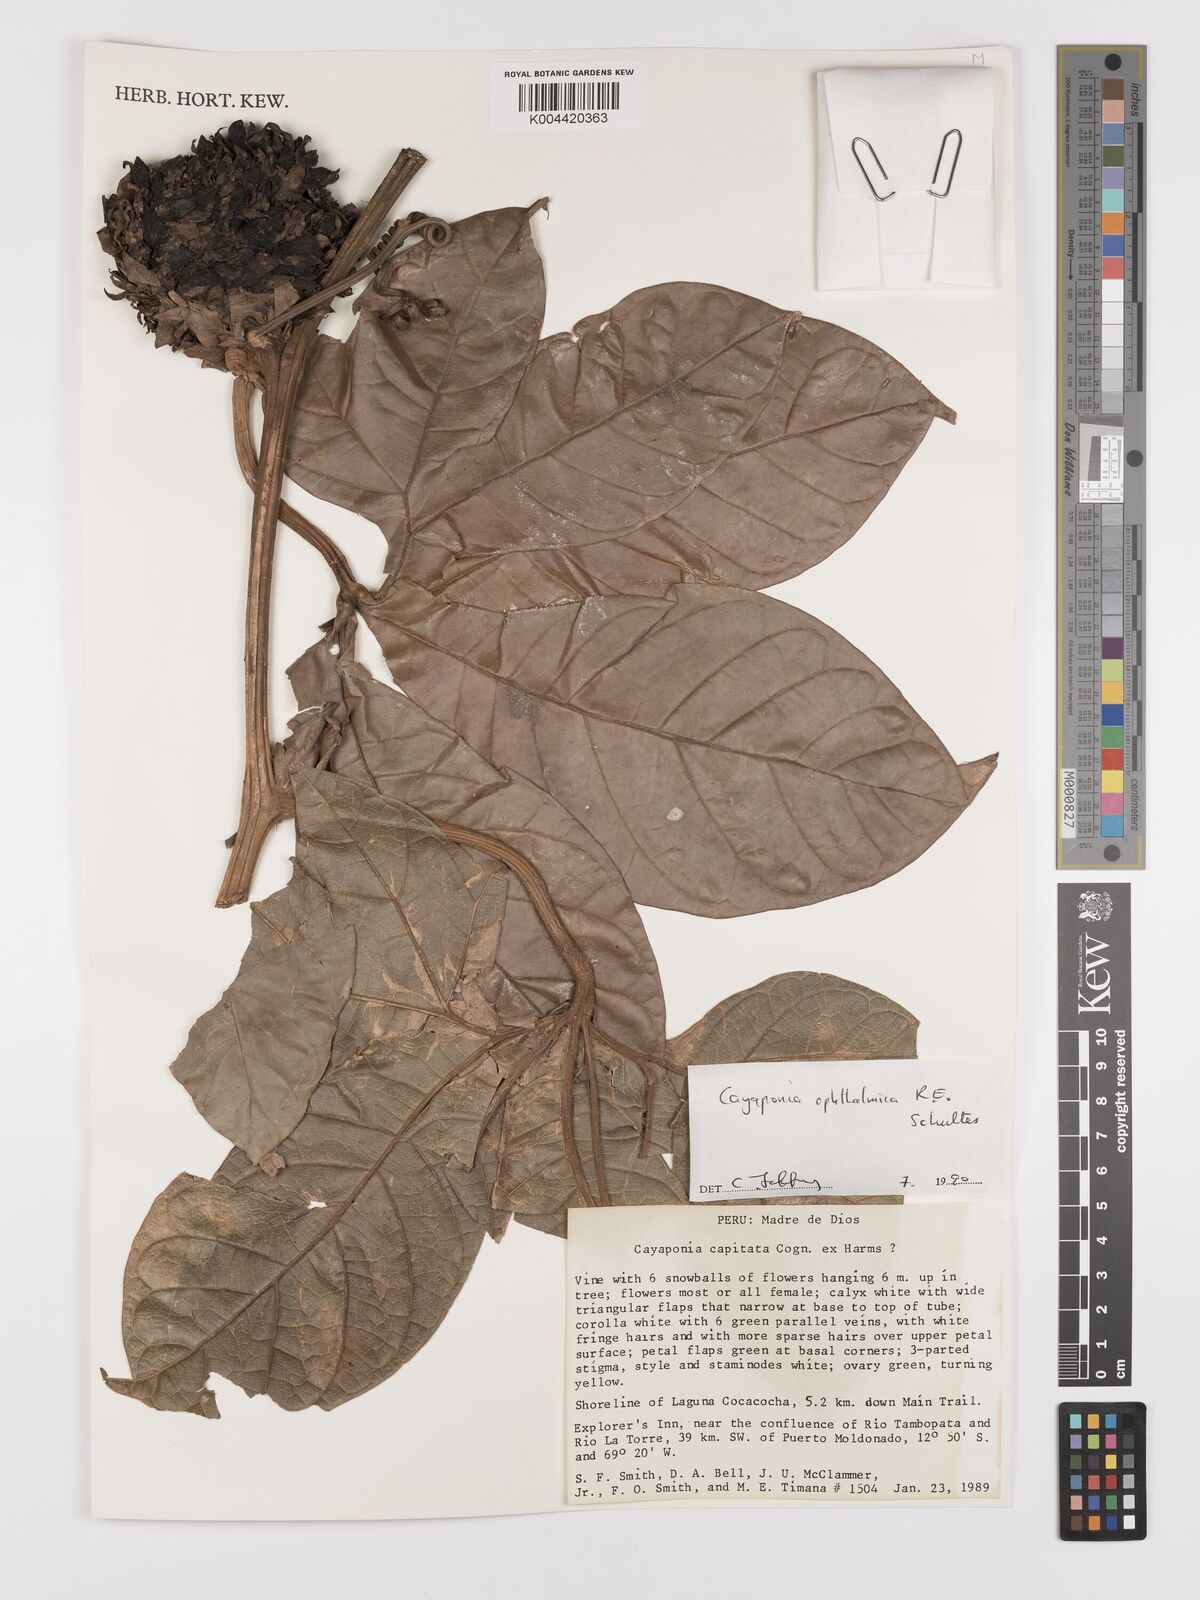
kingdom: Plantae
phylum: Tracheophyta
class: Magnoliopsida
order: Cucurbitales
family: Cucurbitaceae
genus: Cayaponia
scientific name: Cayaponia ophthalmica
